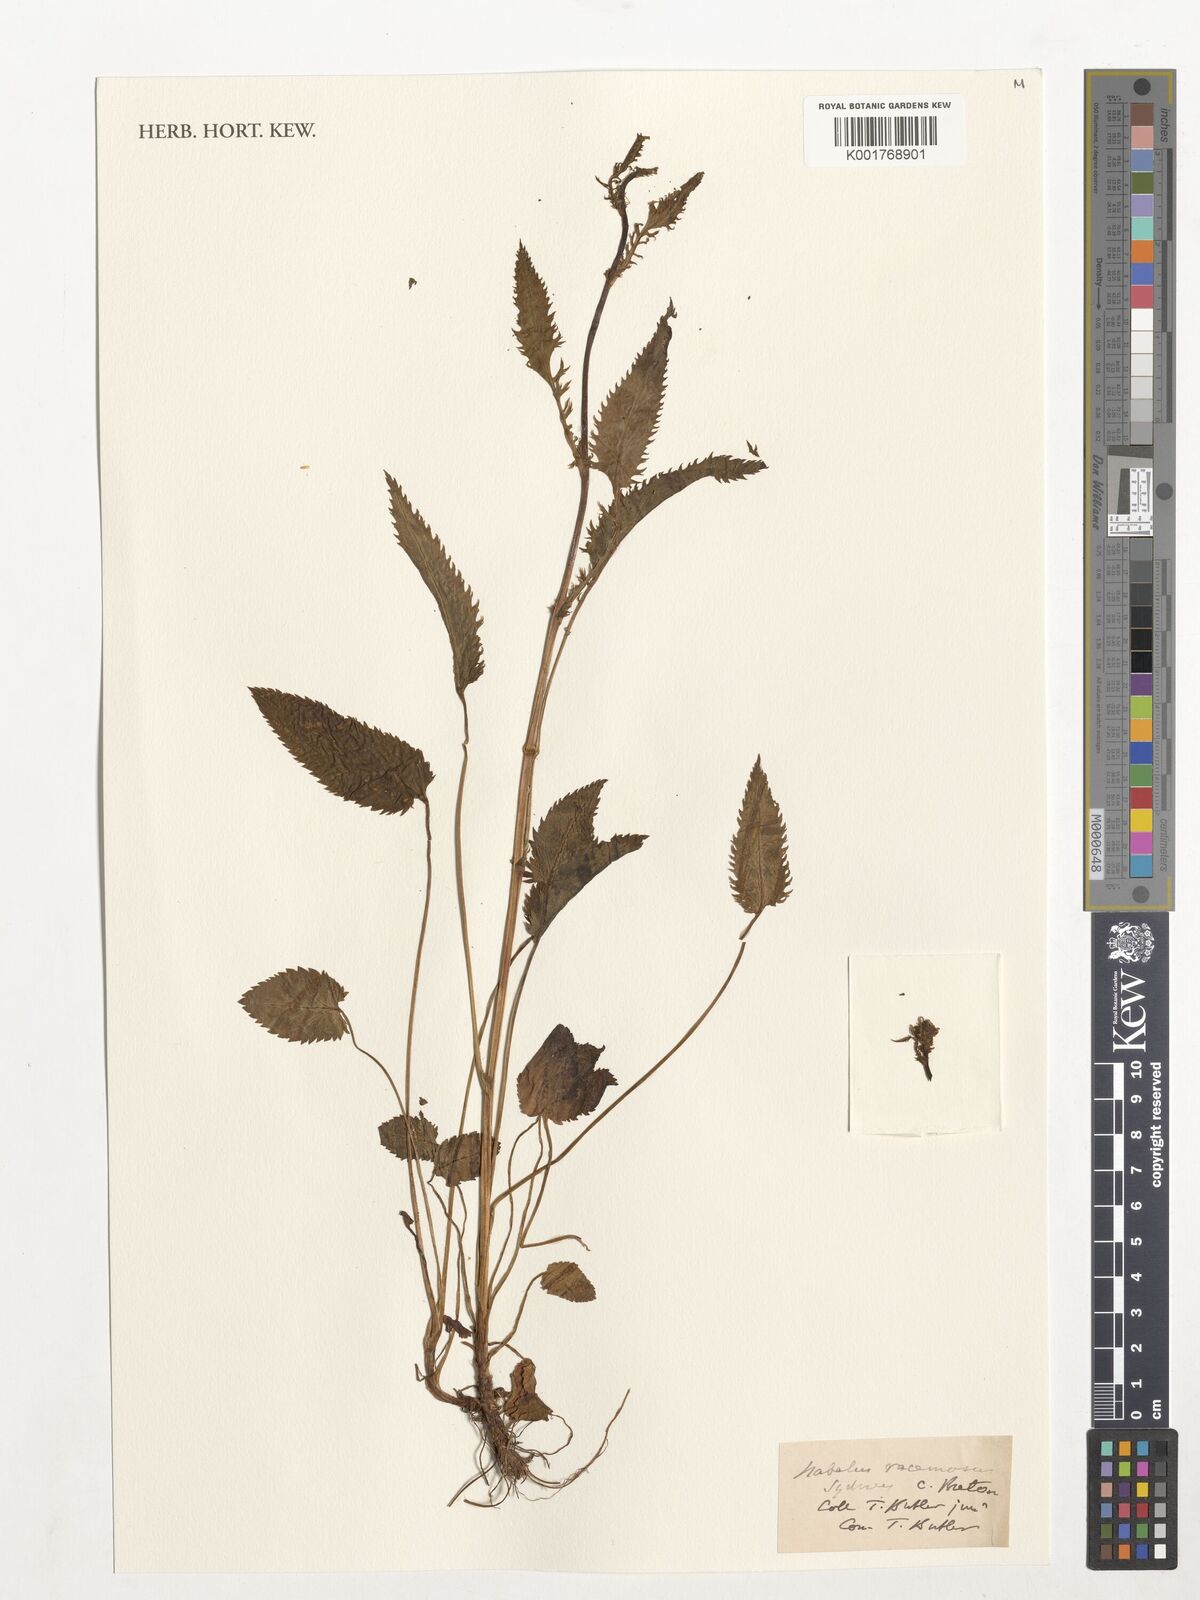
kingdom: Plantae
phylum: Tracheophyta
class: Magnoliopsida
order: Asterales
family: Asteraceae
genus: Nabalus
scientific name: Nabalus racemosus
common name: Glaucous white lettuce
